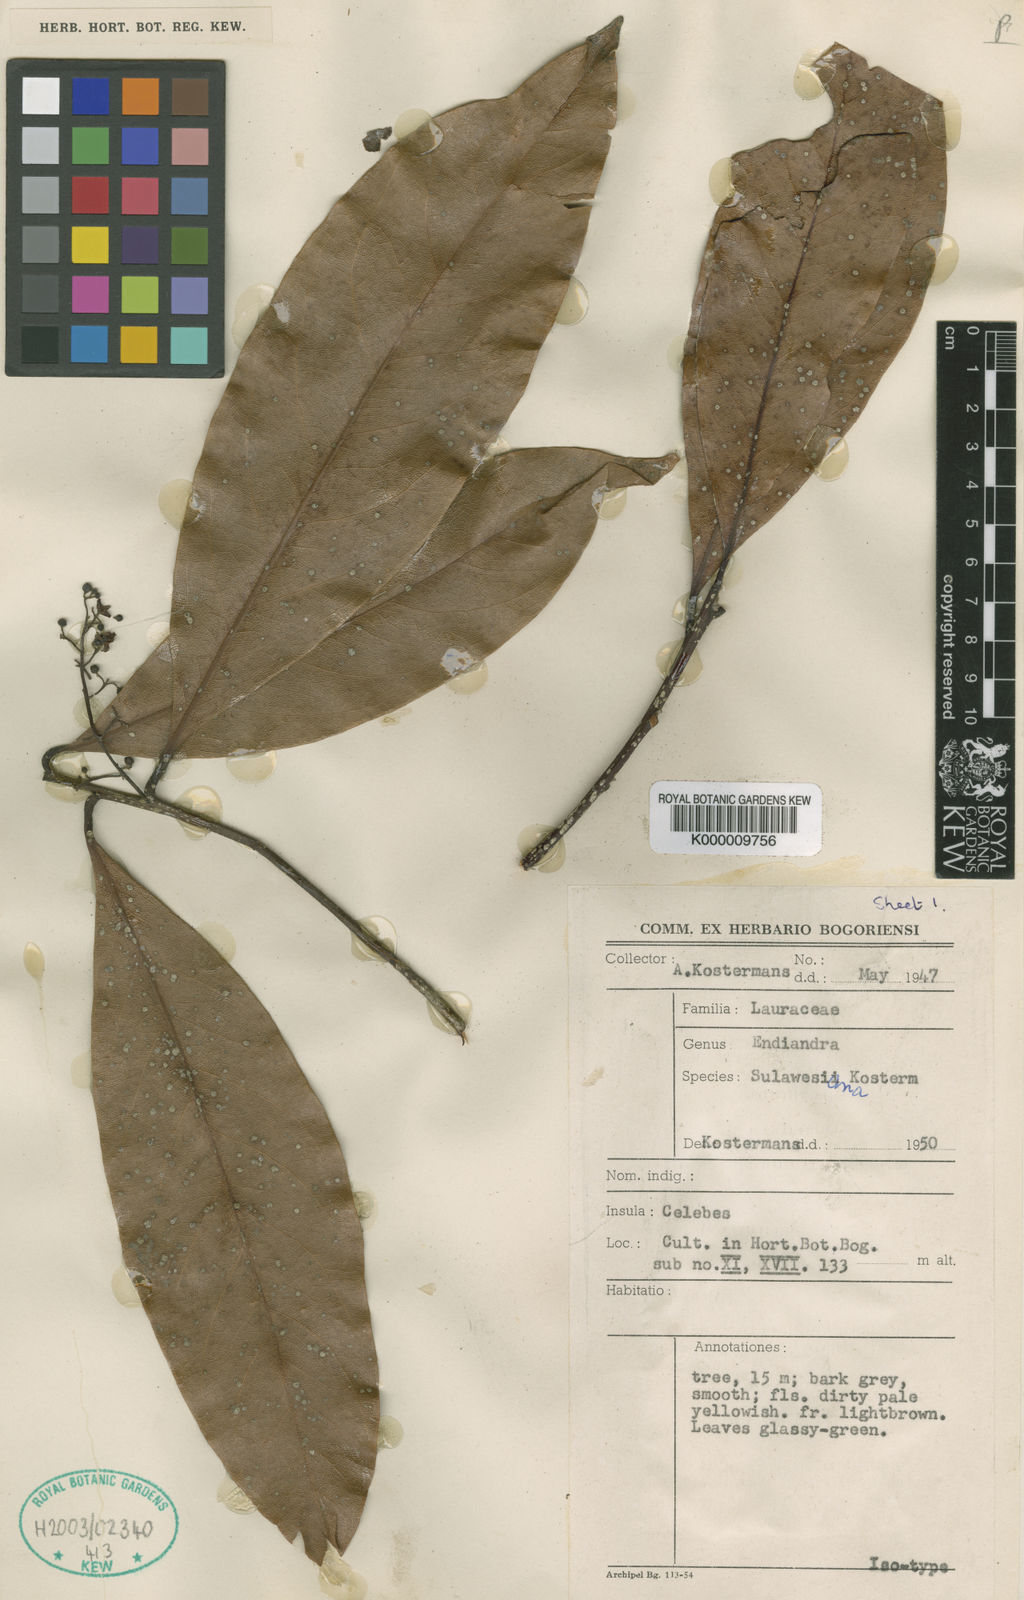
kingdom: Plantae
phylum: Tracheophyta
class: Magnoliopsida
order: Laurales
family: Lauraceae
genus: Endiandra
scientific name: Endiandra
